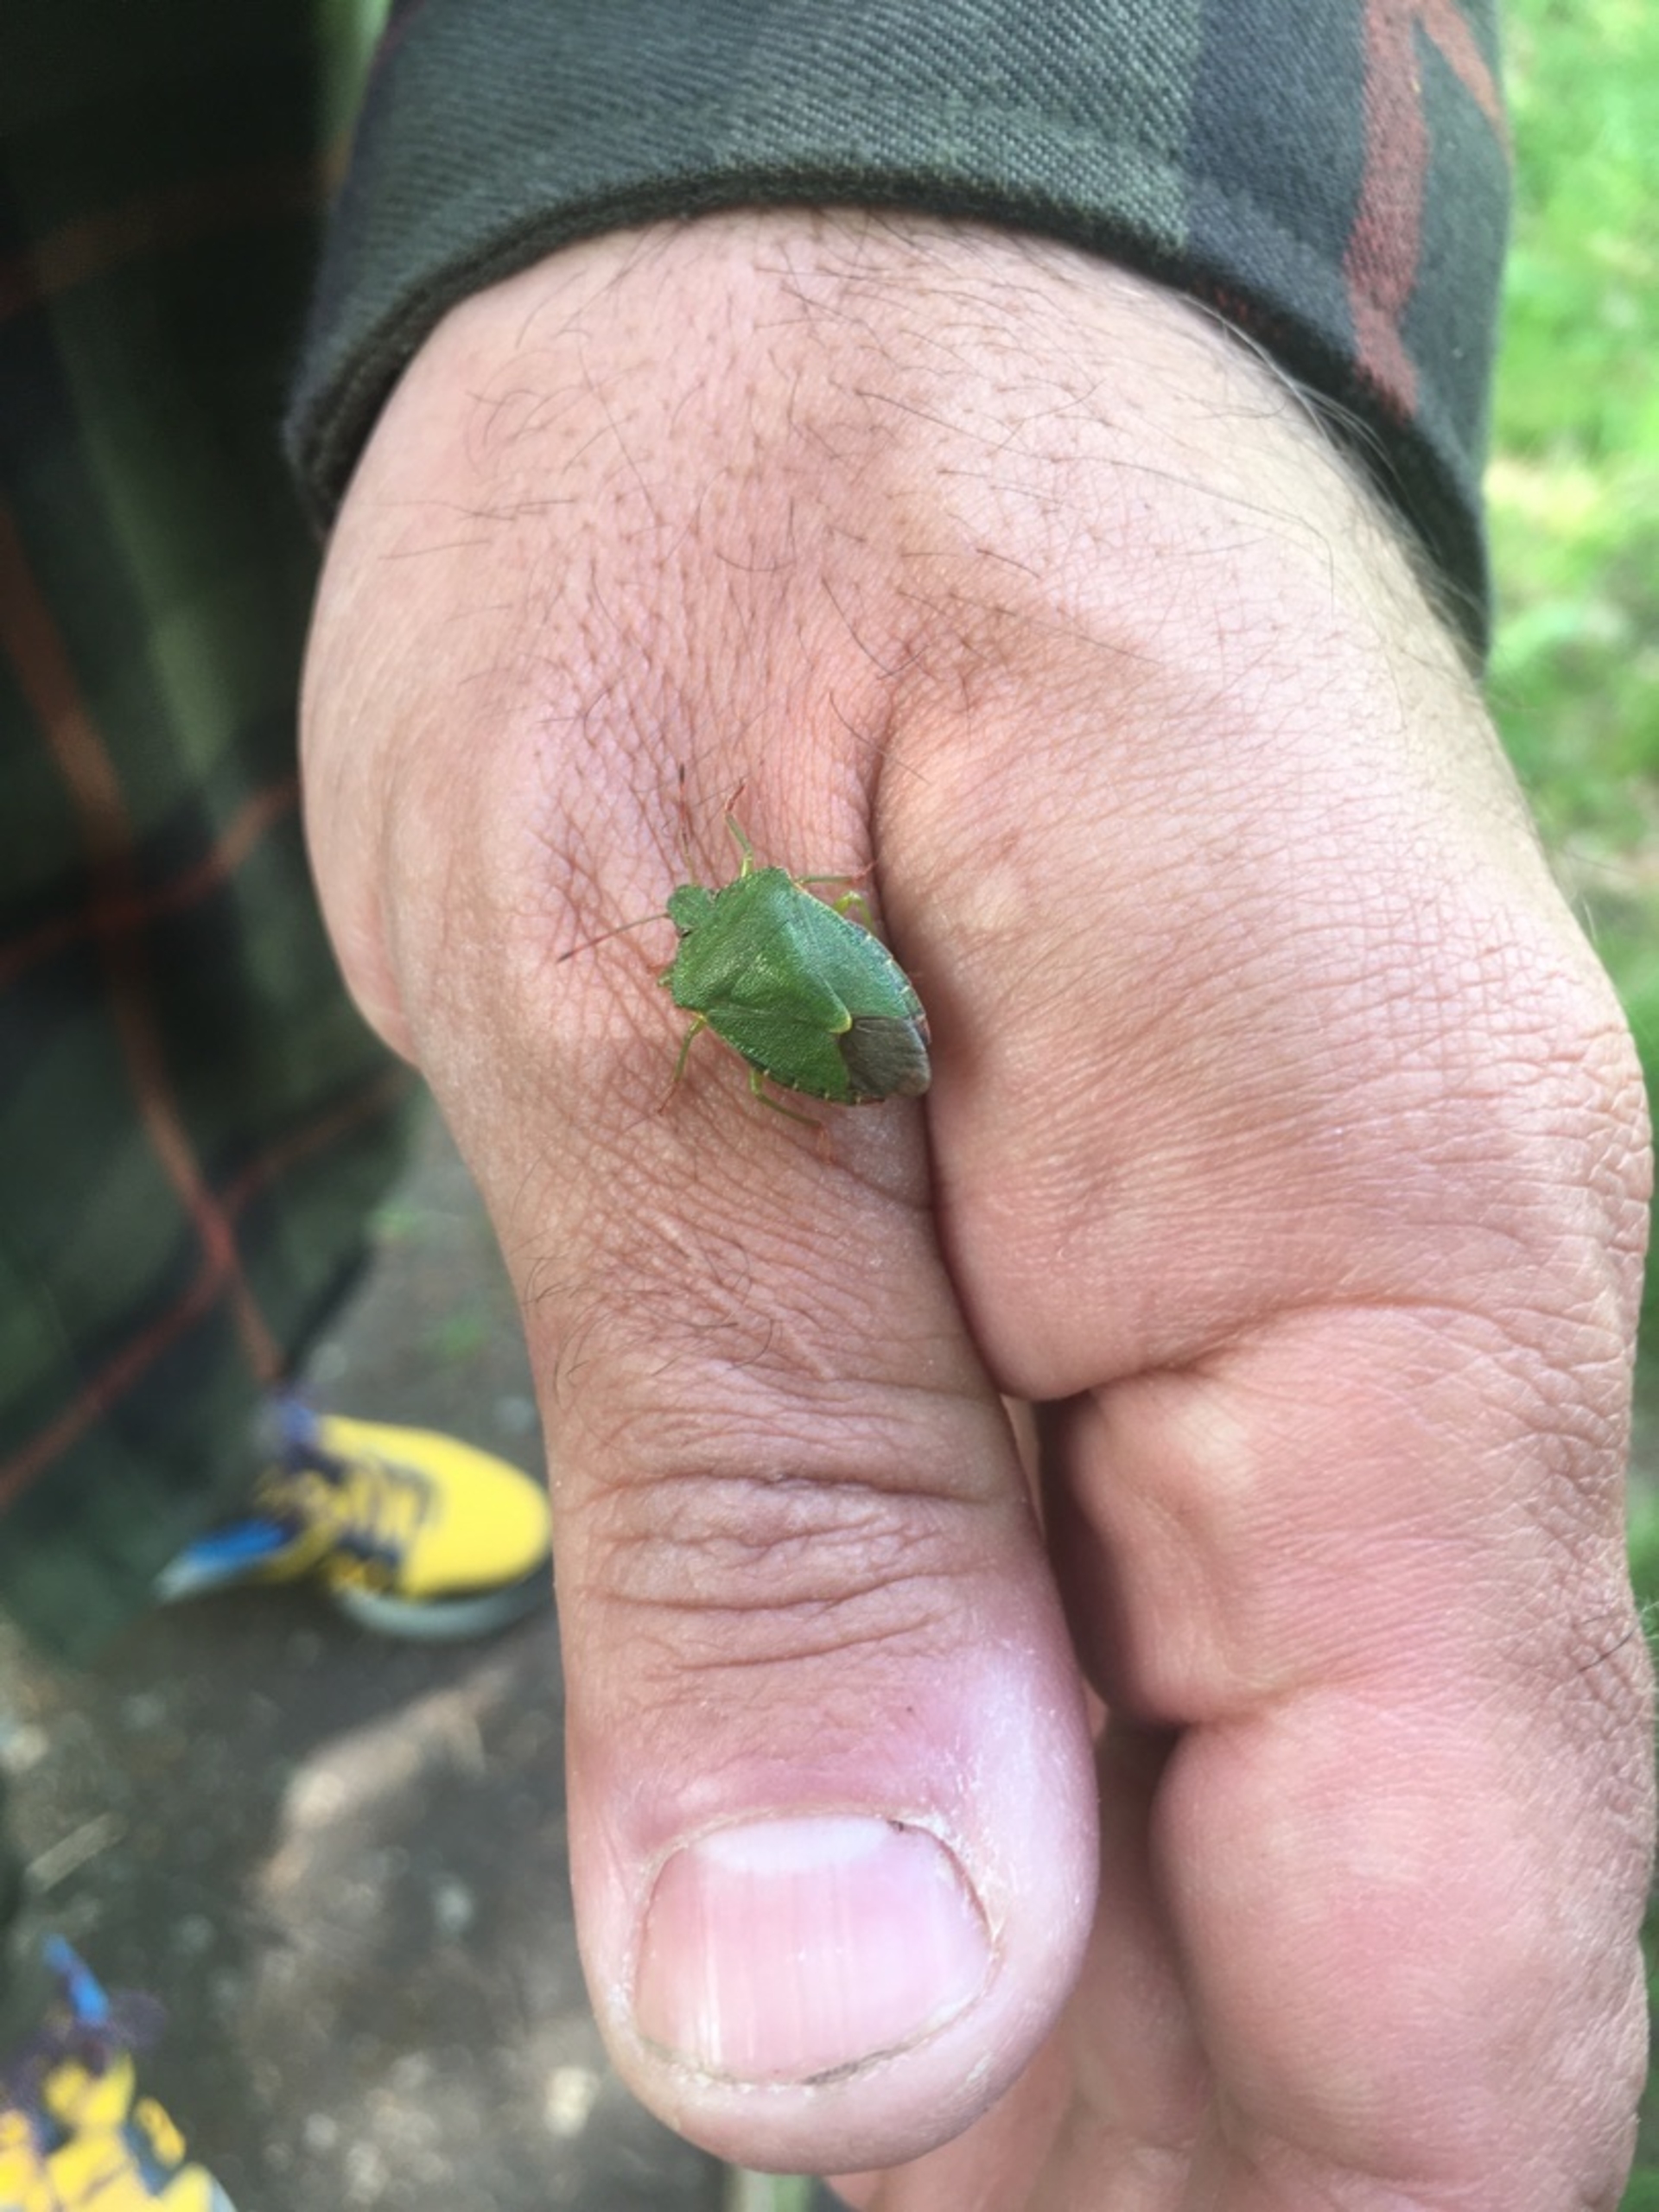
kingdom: Animalia
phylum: Arthropoda
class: Insecta
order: Hemiptera
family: Pentatomidae
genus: Palomena
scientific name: Palomena prasina
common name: Grøn bredtæge
